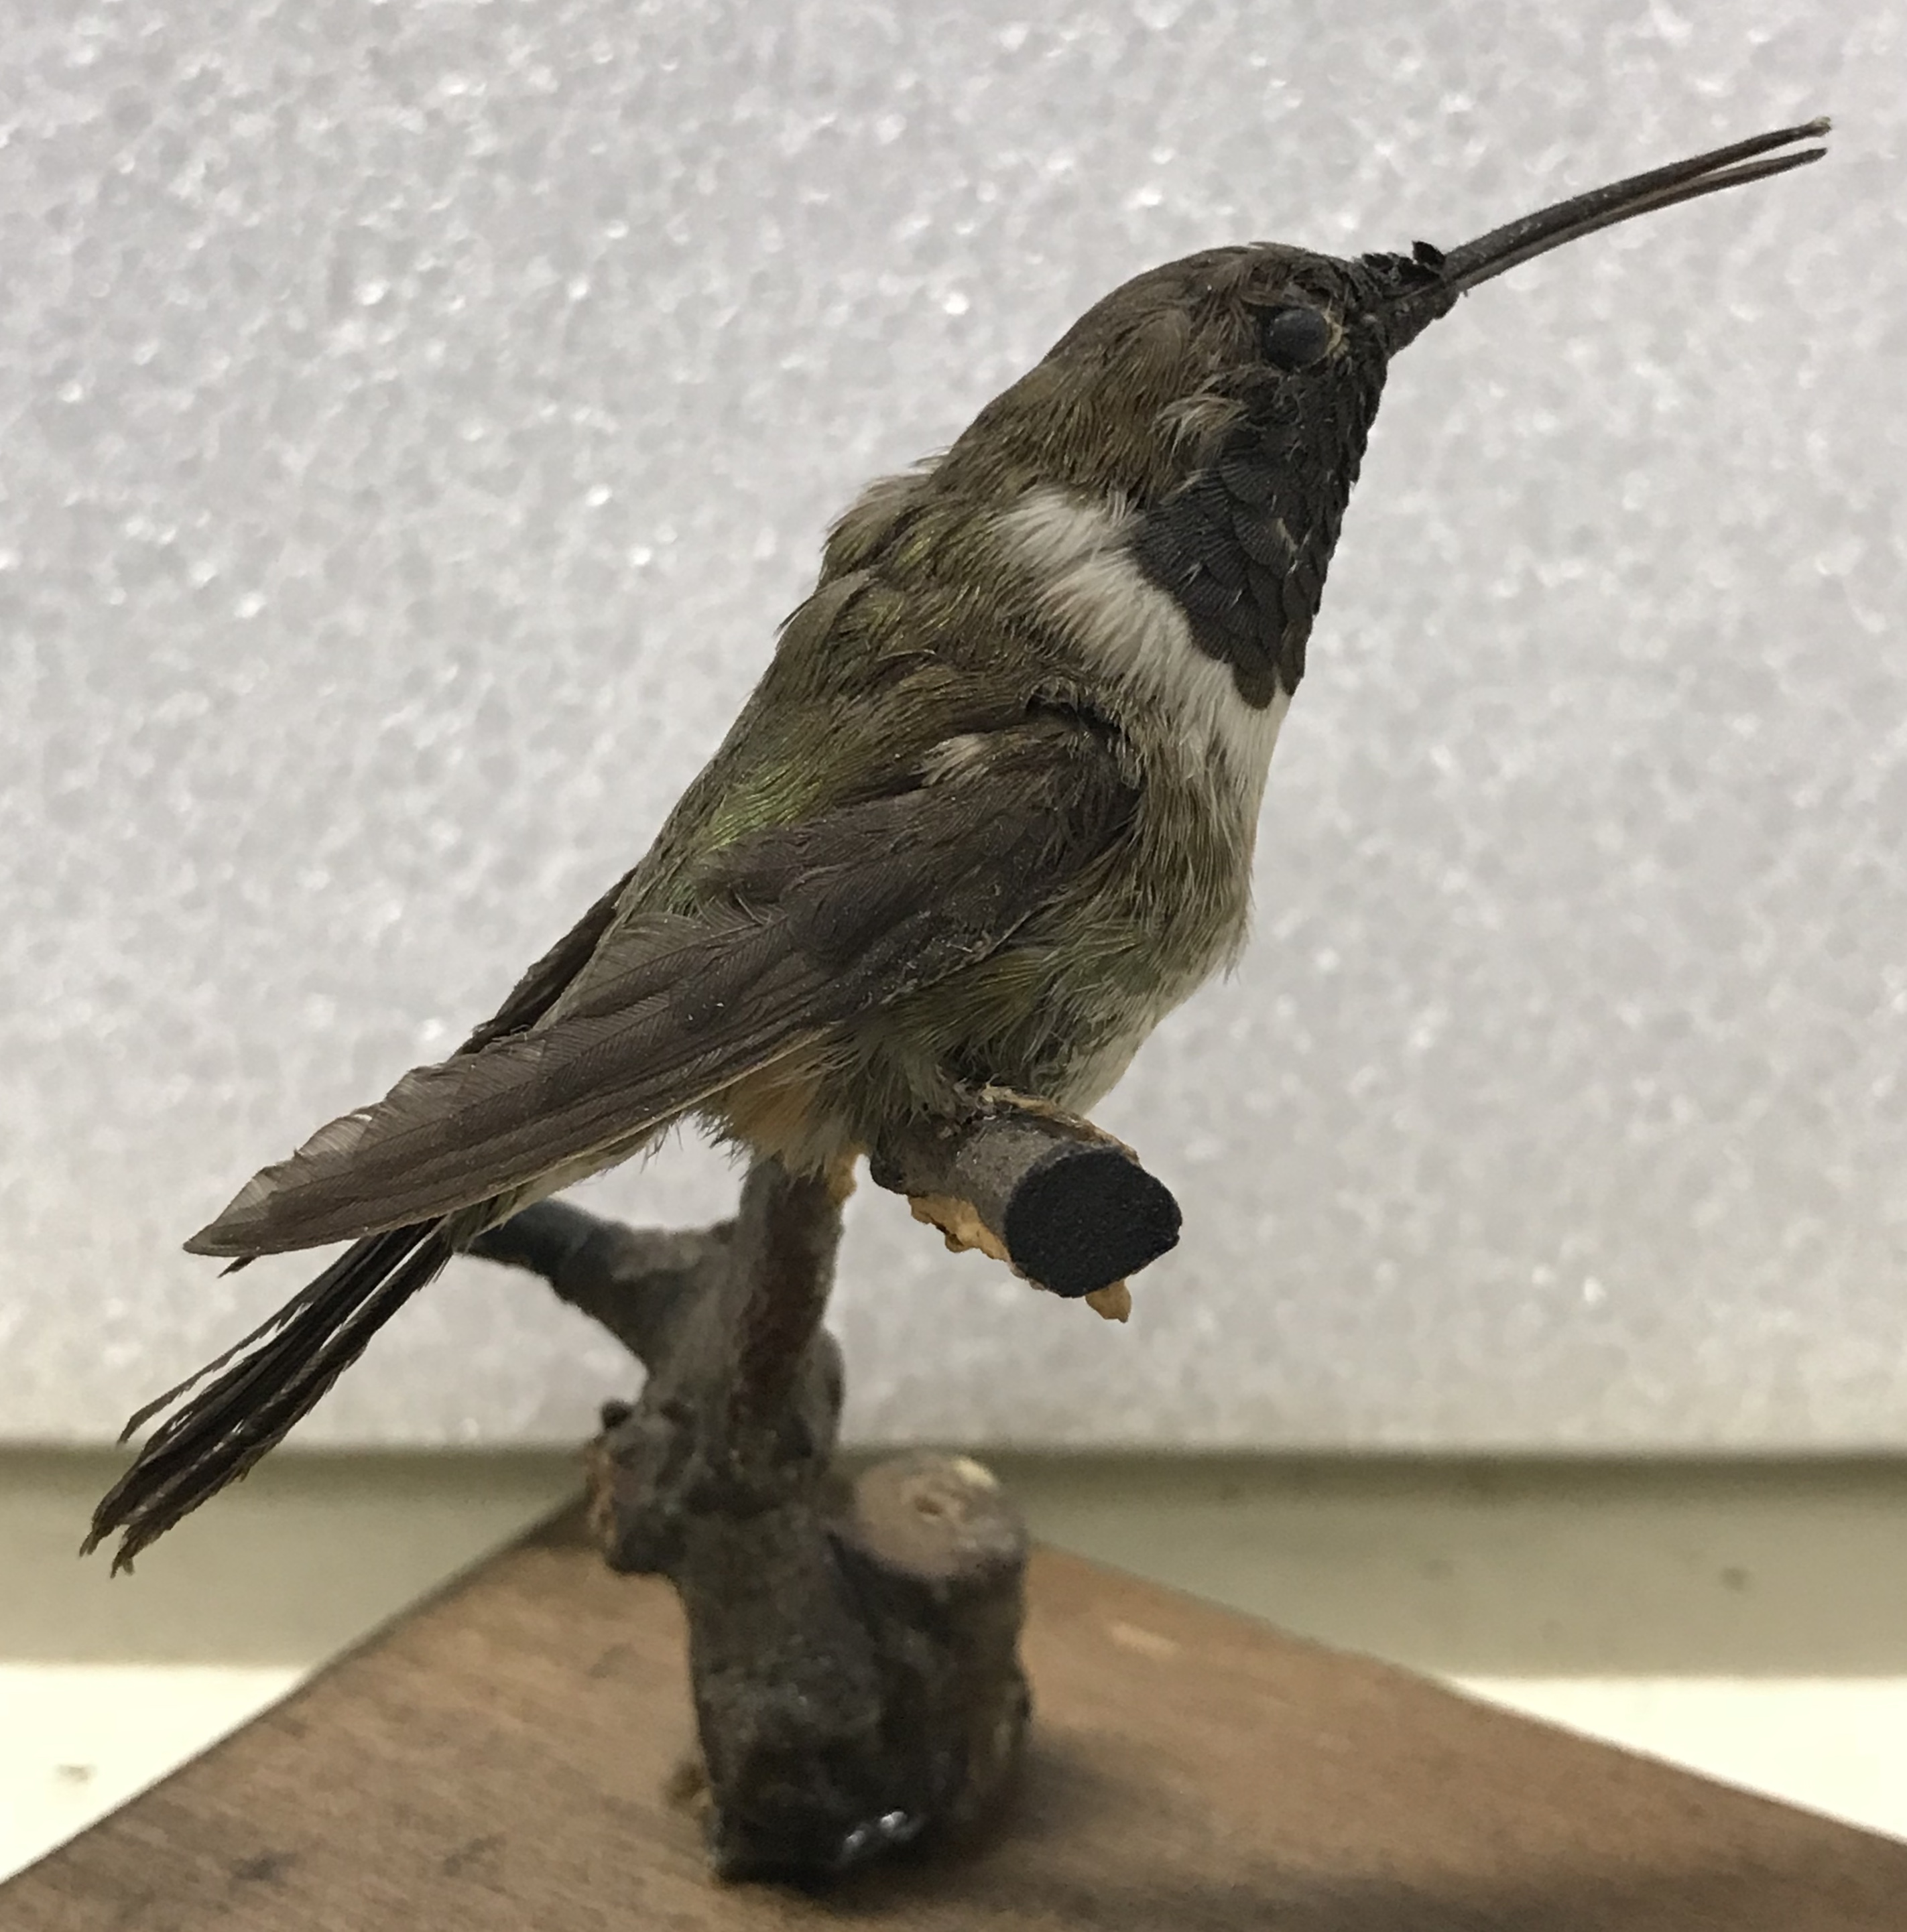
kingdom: Animalia
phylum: Chordata
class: Aves
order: Apodiformes
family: Trochilidae
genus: Myrtis
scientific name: Myrtis fanny
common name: Purple-collared woodstar
